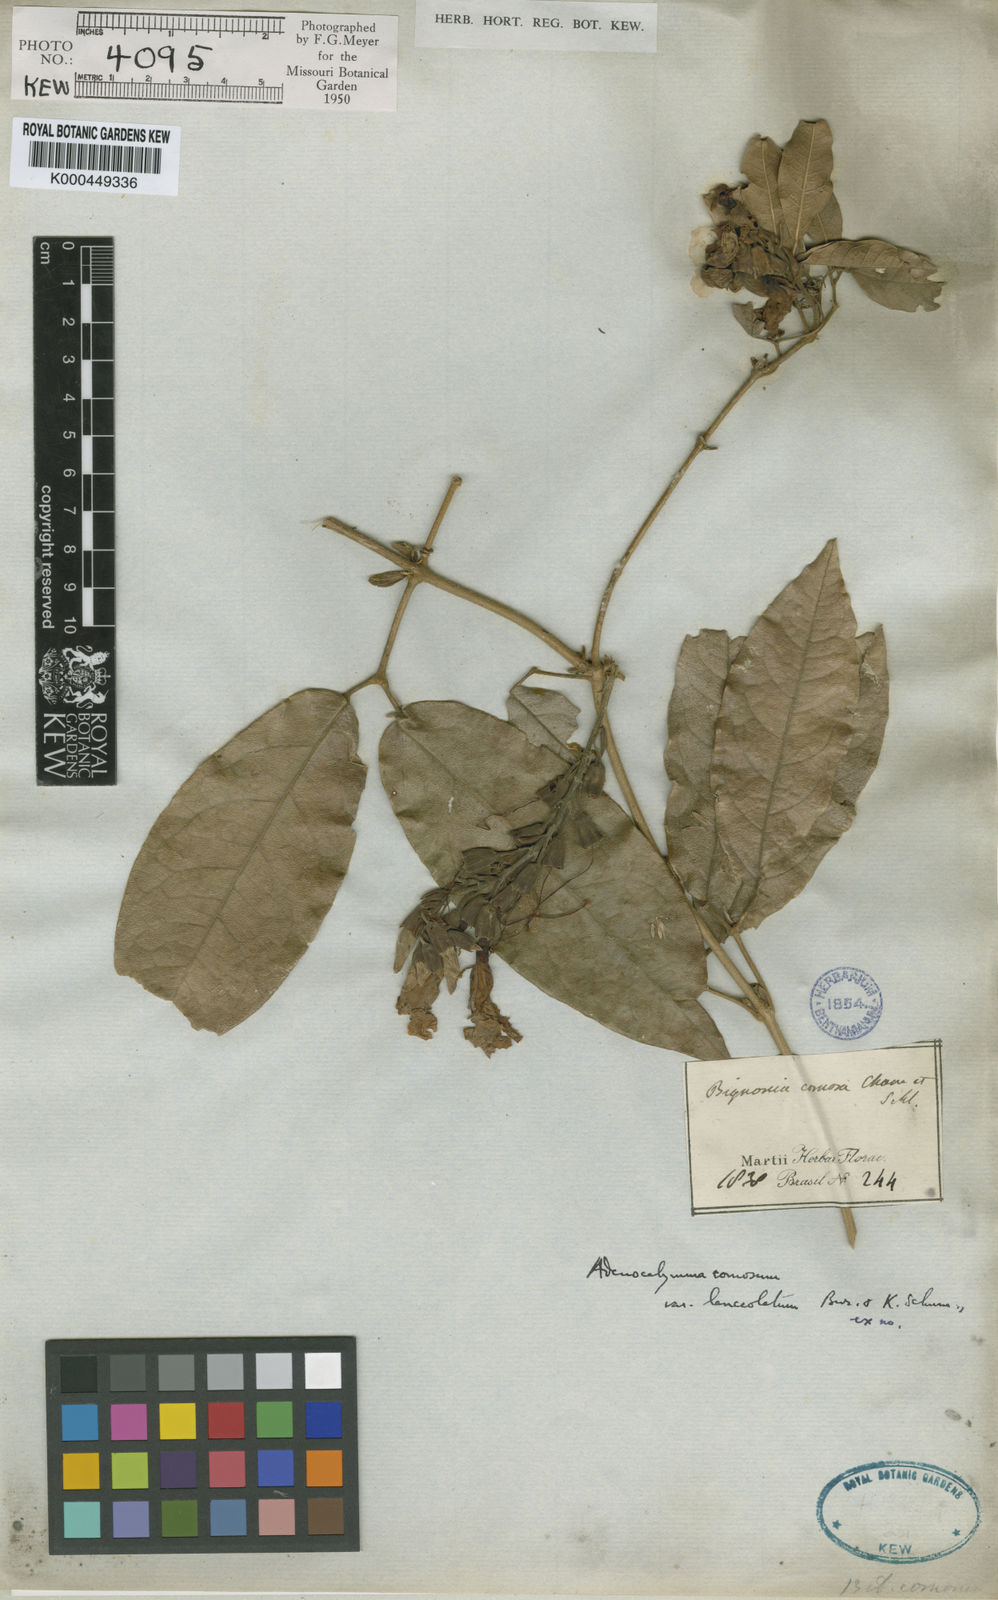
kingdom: Plantae
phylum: Tracheophyta
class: Magnoliopsida
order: Lamiales
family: Bignoniaceae
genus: Adenocalymma
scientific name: Adenocalymma acutissimum
